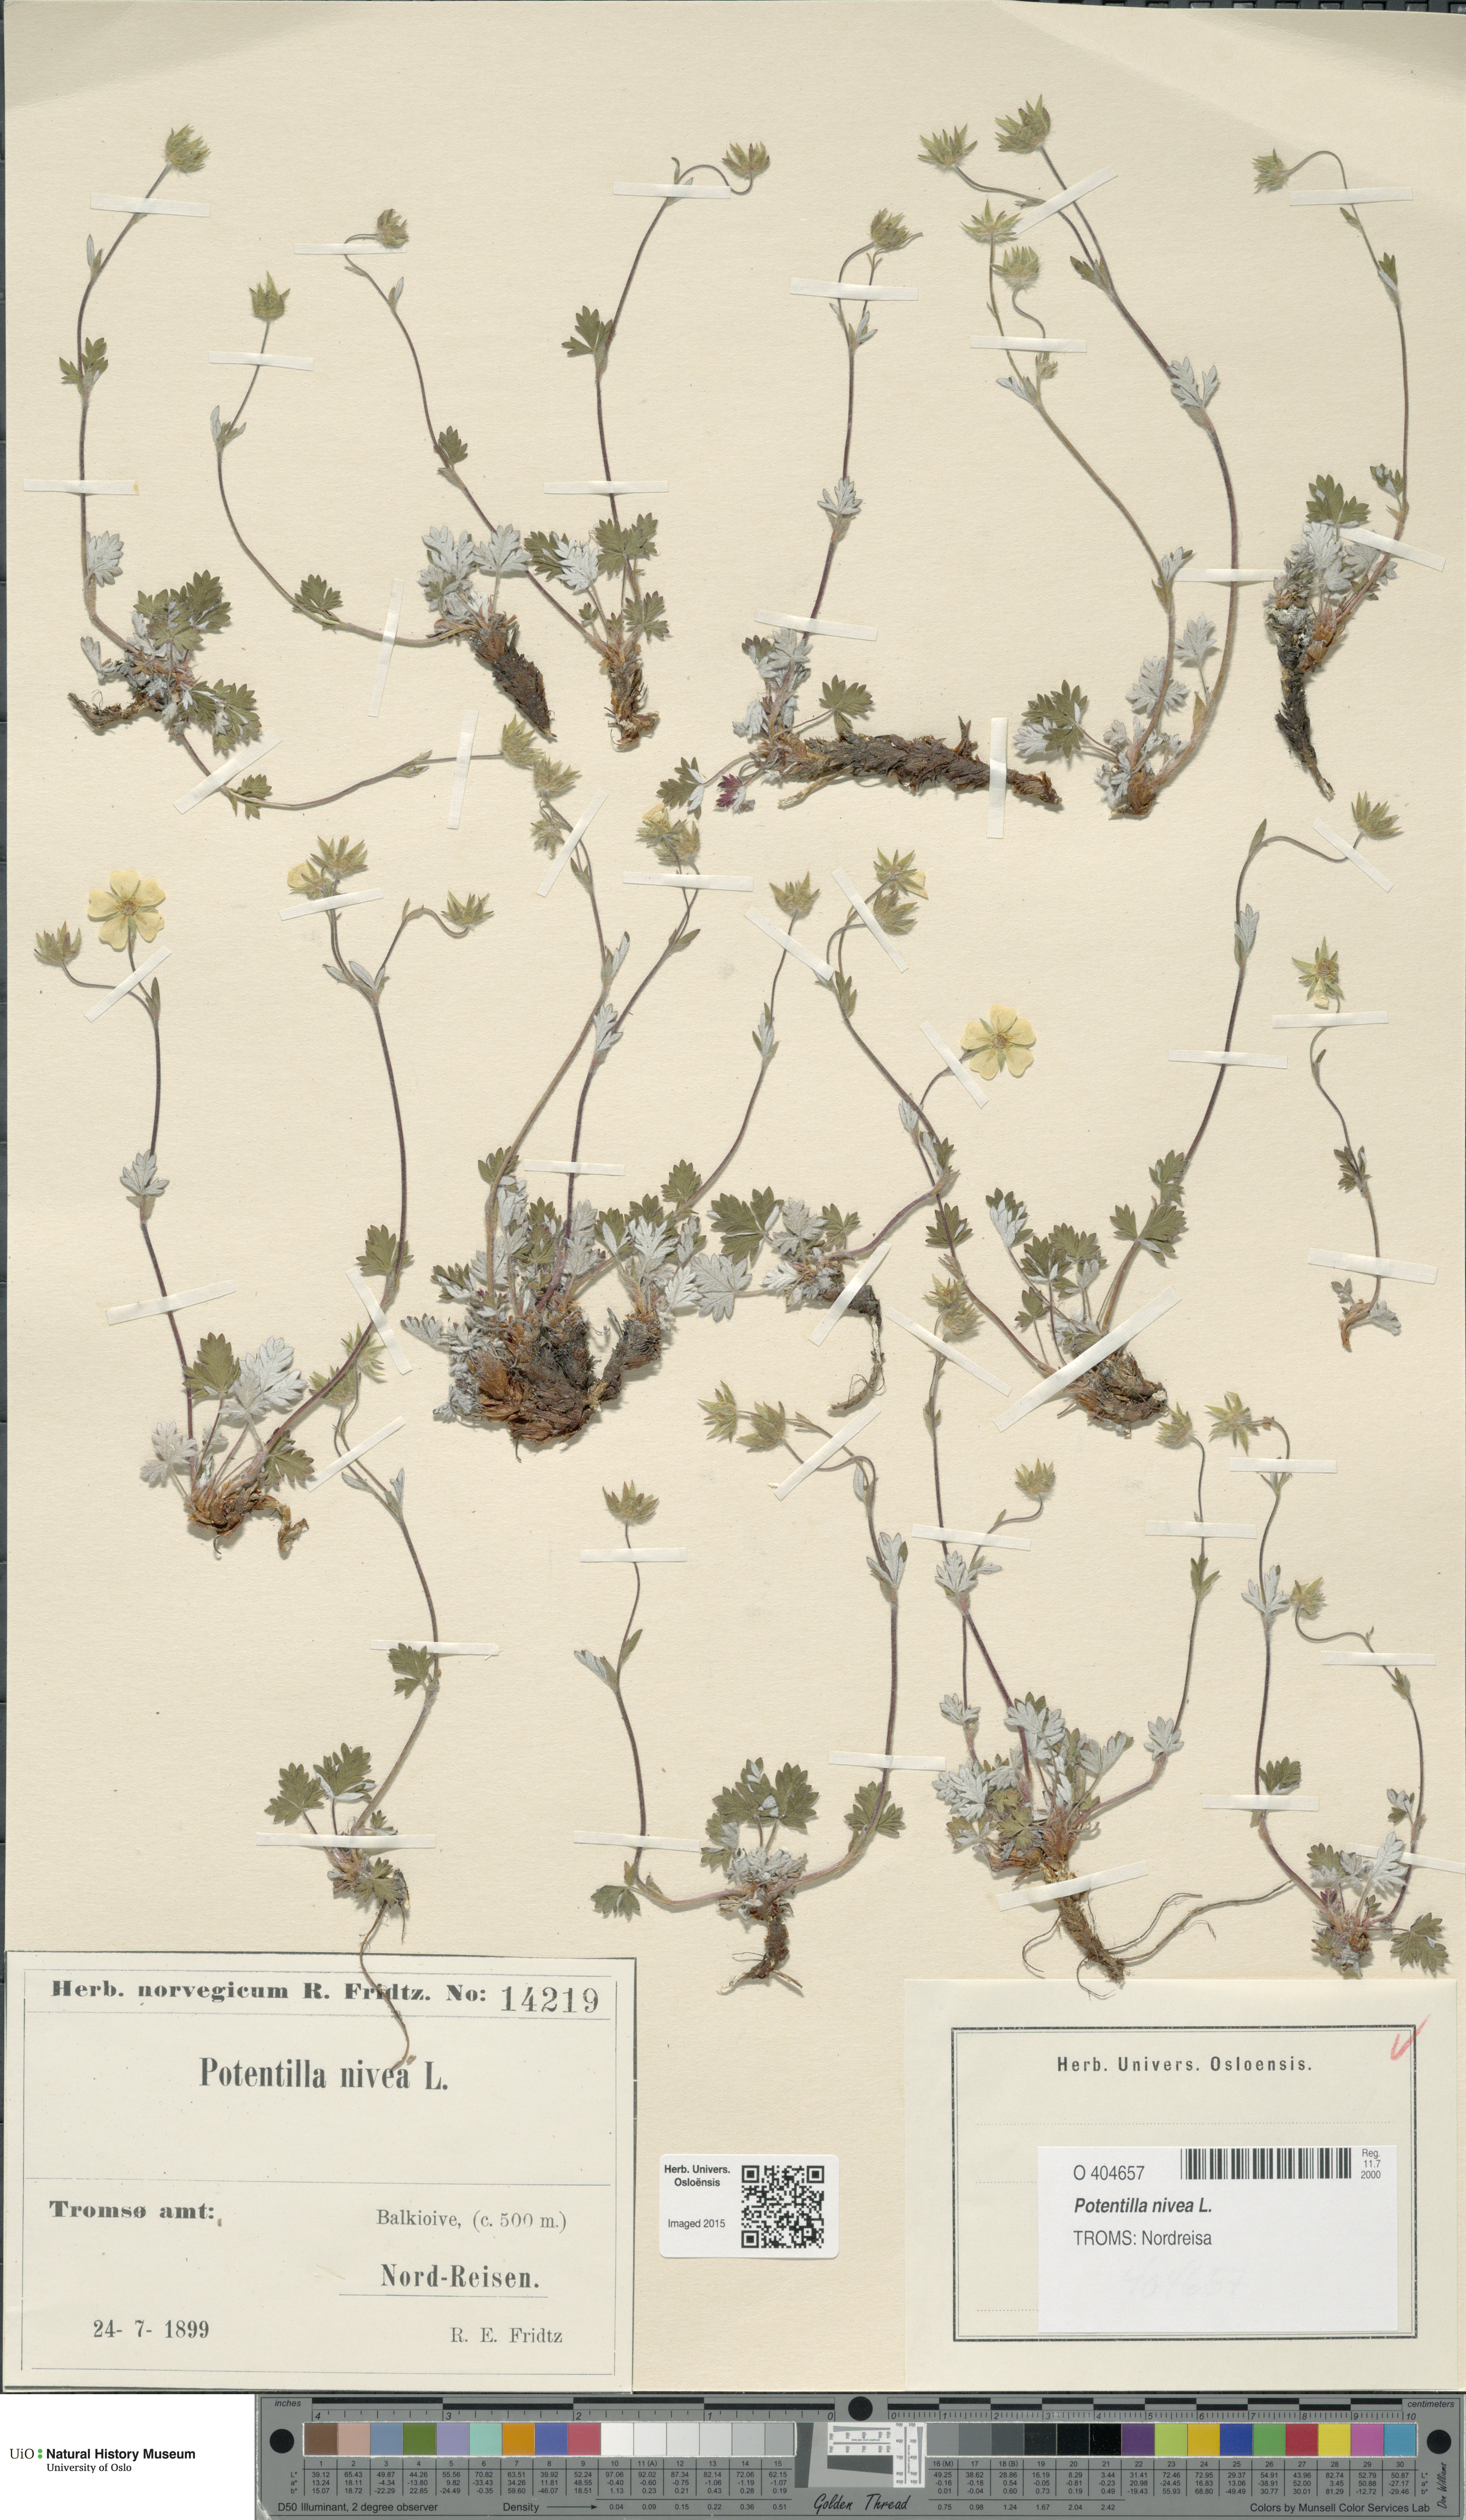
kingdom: Plantae
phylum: Tracheophyta
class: Magnoliopsida
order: Rosales
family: Rosaceae
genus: Potentilla
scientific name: Potentilla arenosa
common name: Bluff cinquefoil
